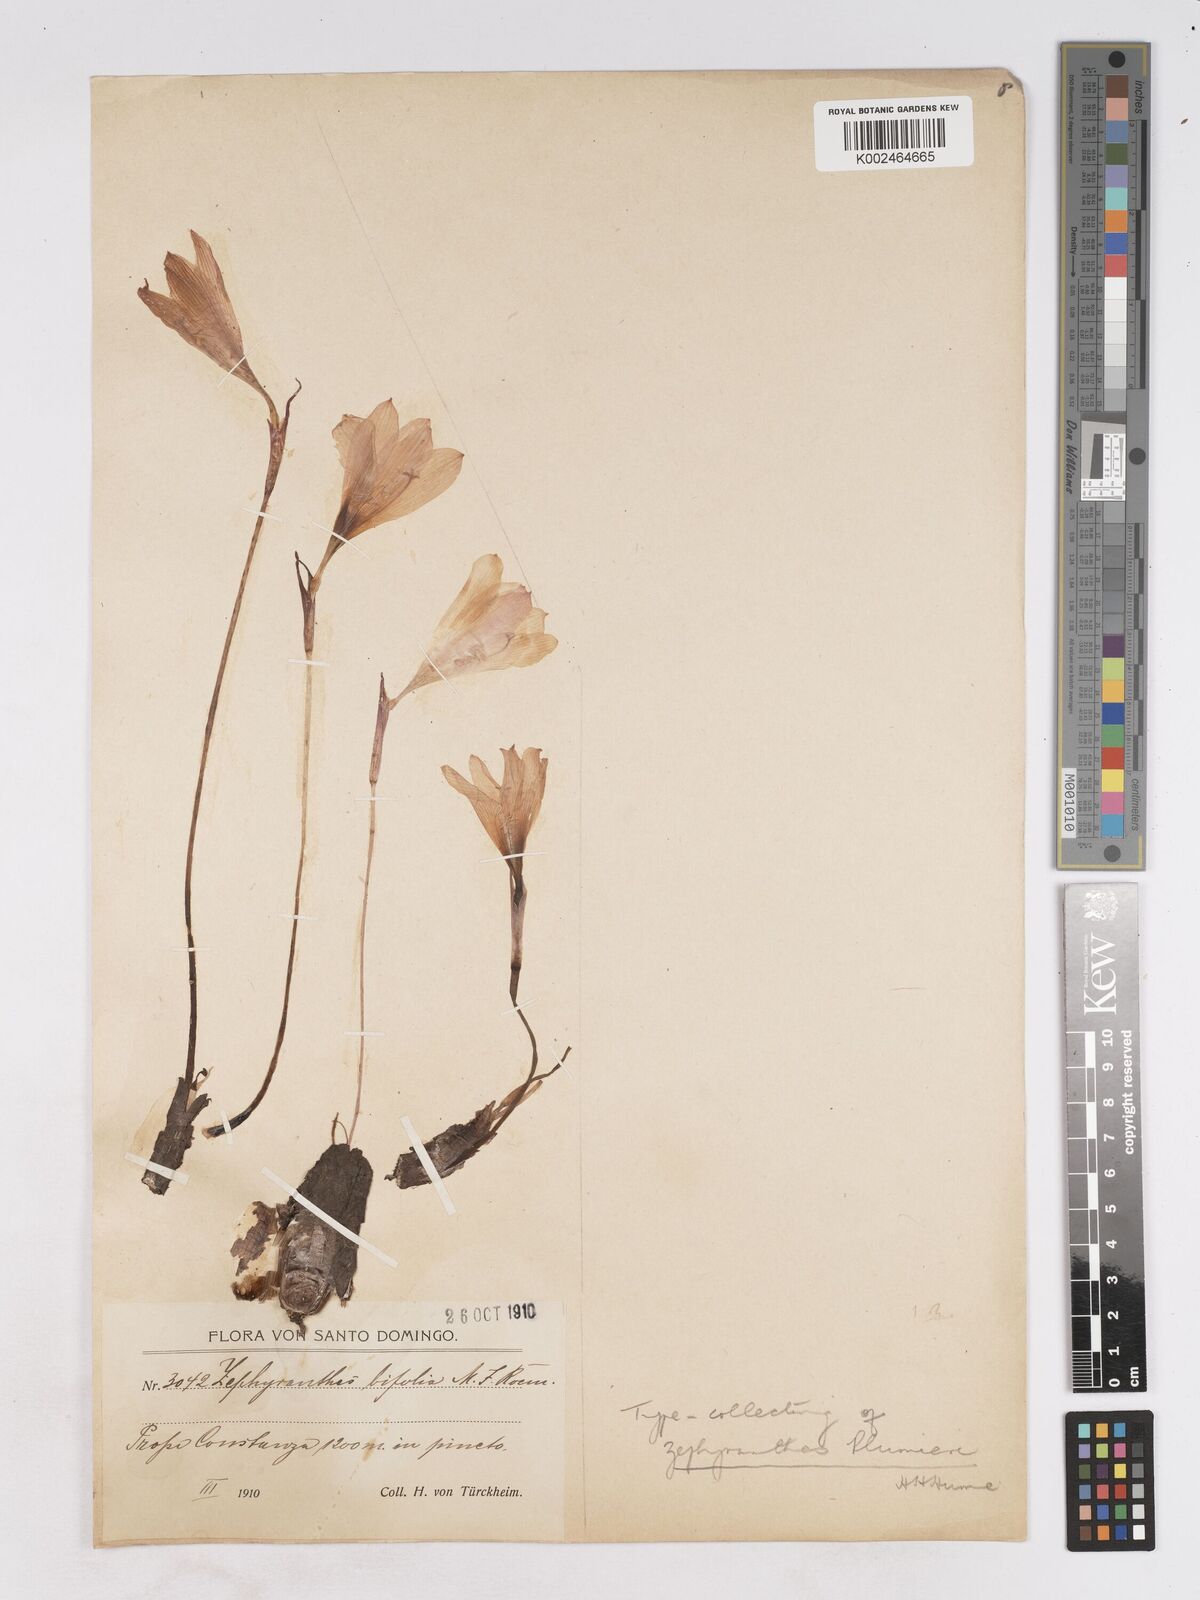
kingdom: Plantae
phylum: Tracheophyta
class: Liliopsida
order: Asparagales
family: Amaryllidaceae
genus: Zephyranthes
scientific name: Zephyranthes plumieri
